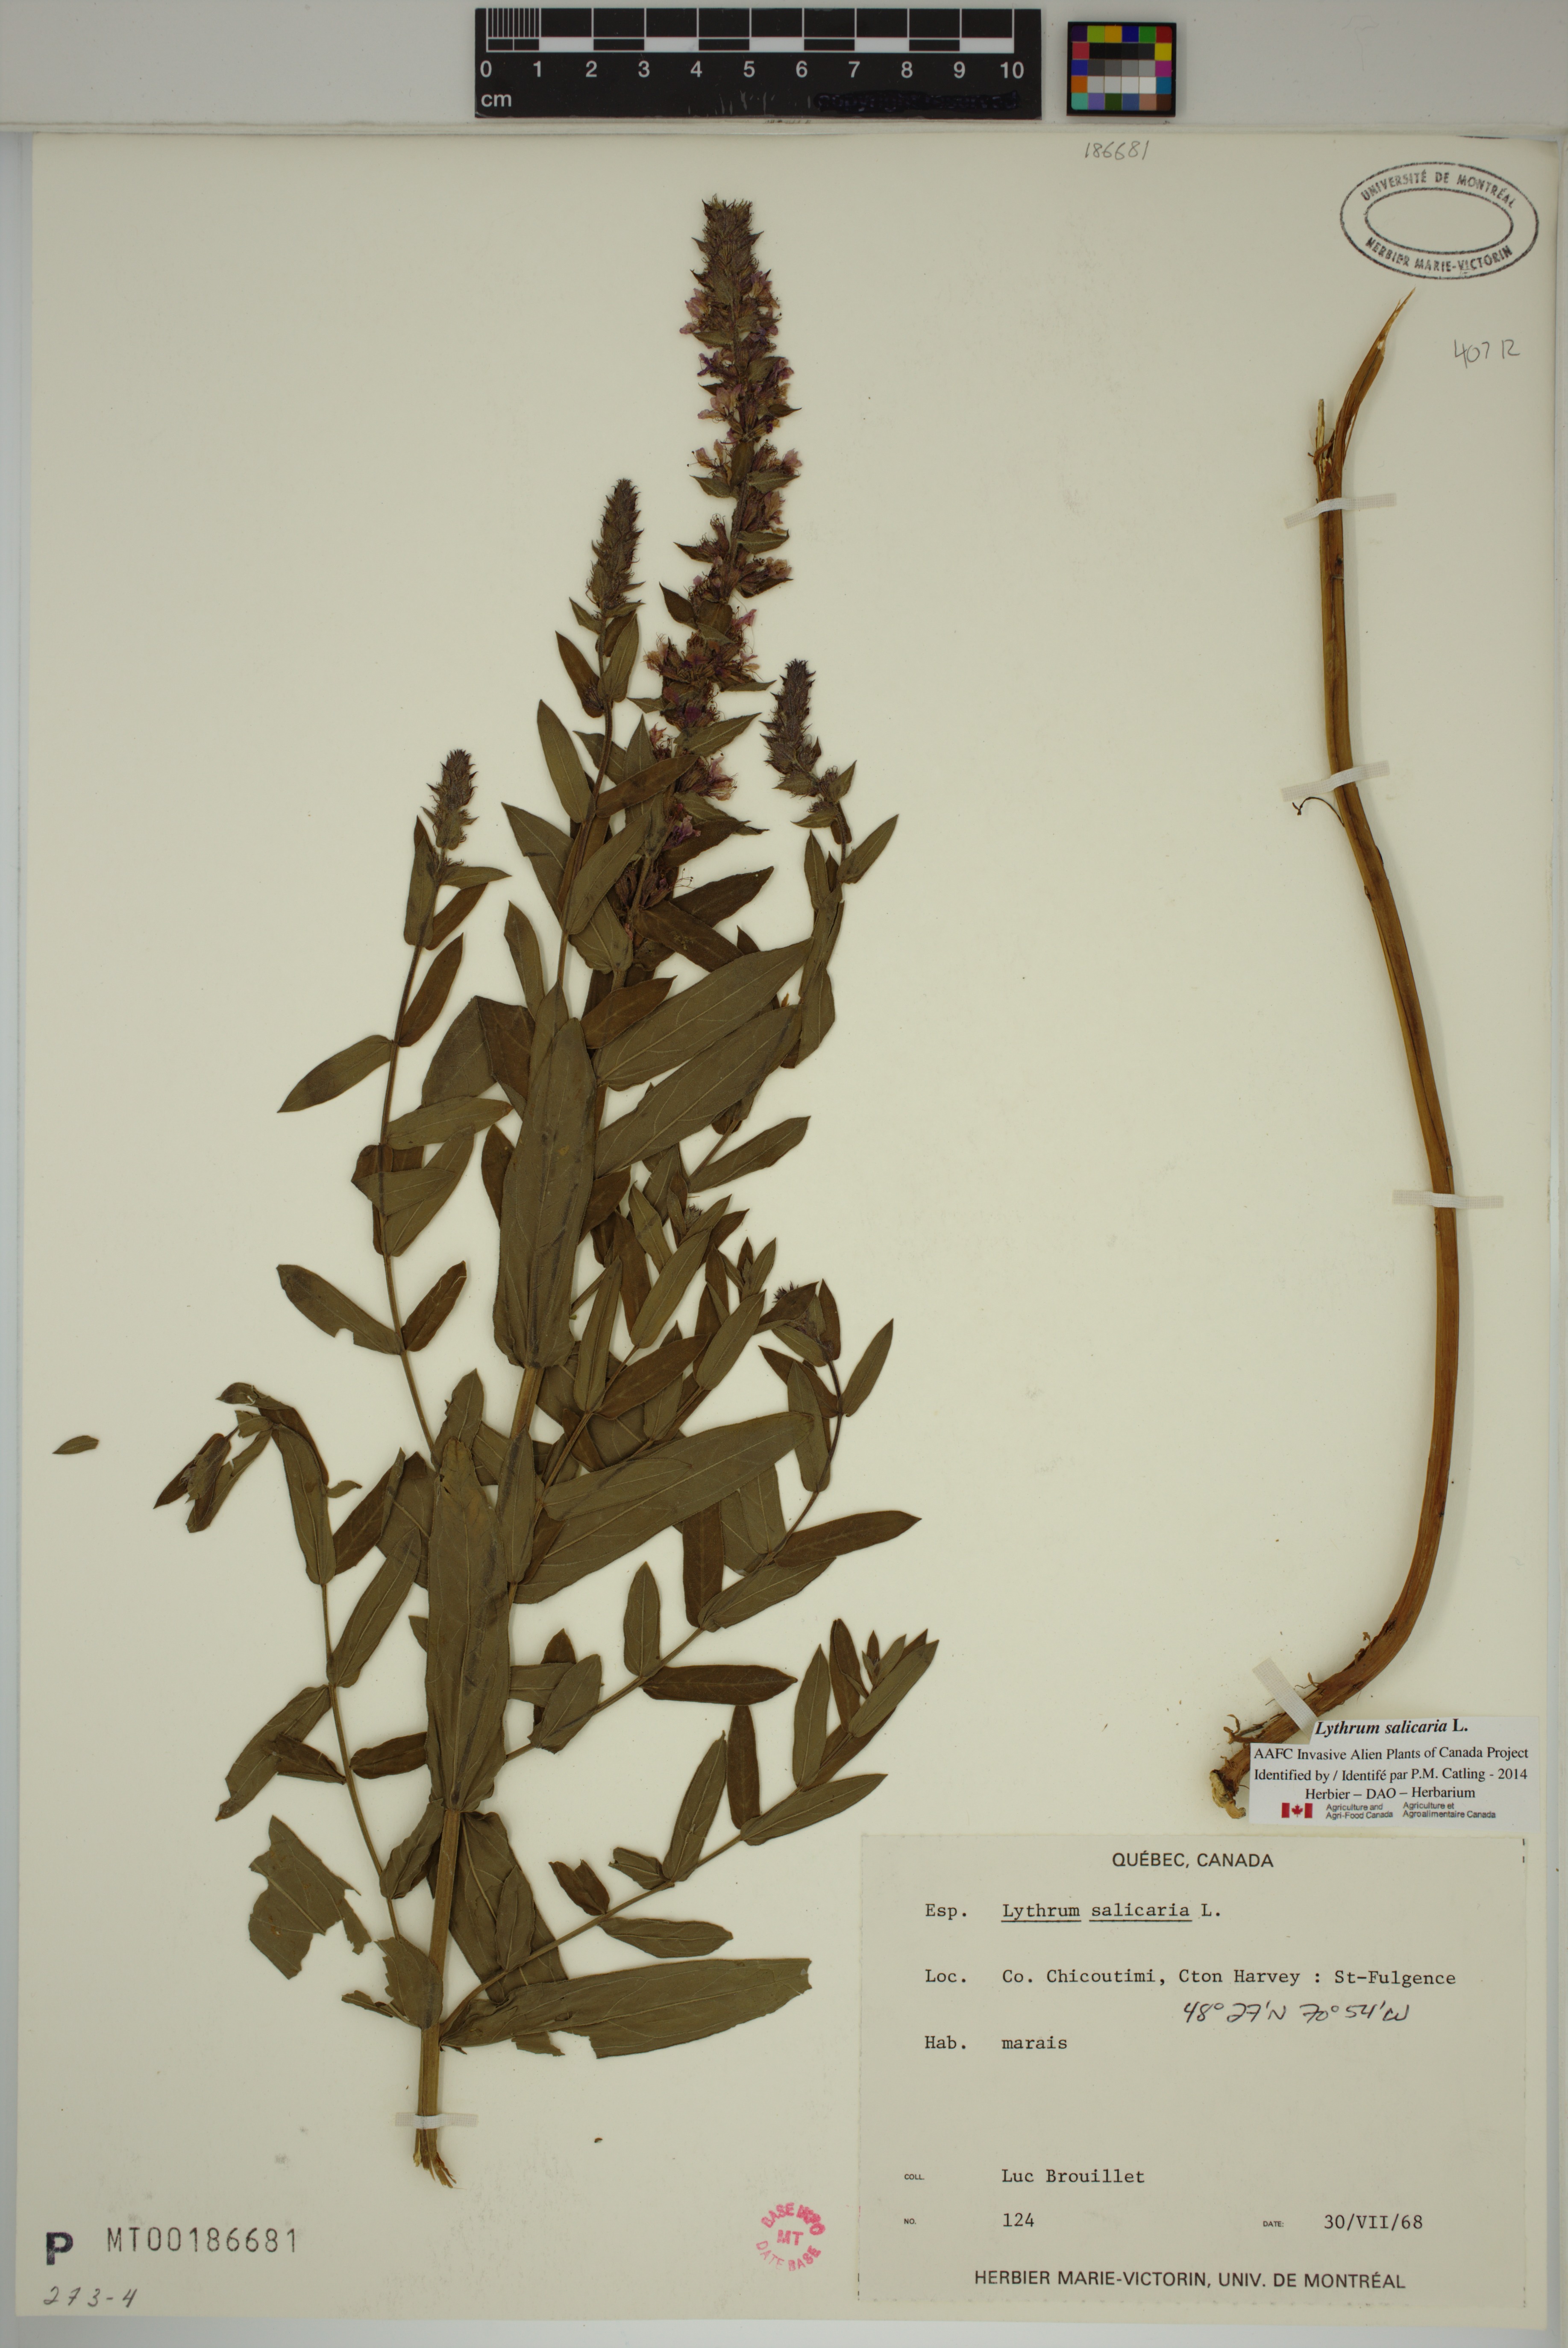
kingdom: Plantae
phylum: Tracheophyta
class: Magnoliopsida
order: Myrtales
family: Lythraceae
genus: Lythrum
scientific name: Lythrum salicaria
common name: Purple loosestrife
